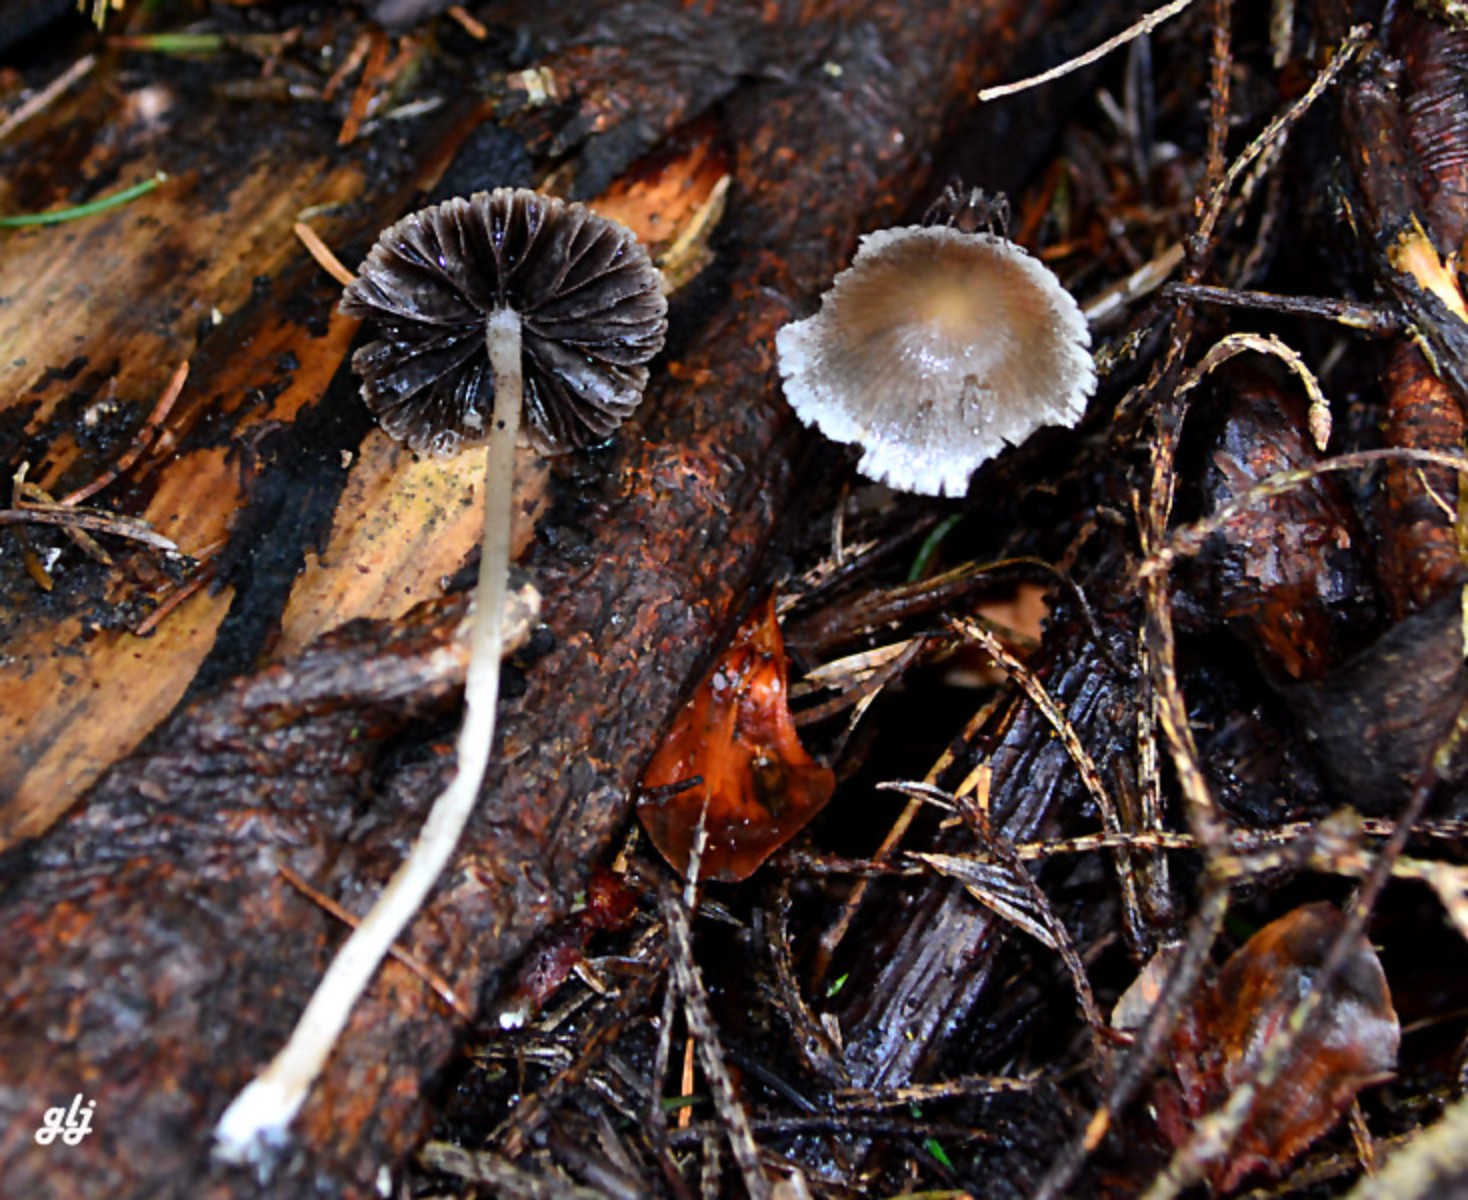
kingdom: Fungi
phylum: Basidiomycota
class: Agaricomycetes
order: Agaricales
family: Psathyrellaceae
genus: Psathyrella
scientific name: Psathyrella
